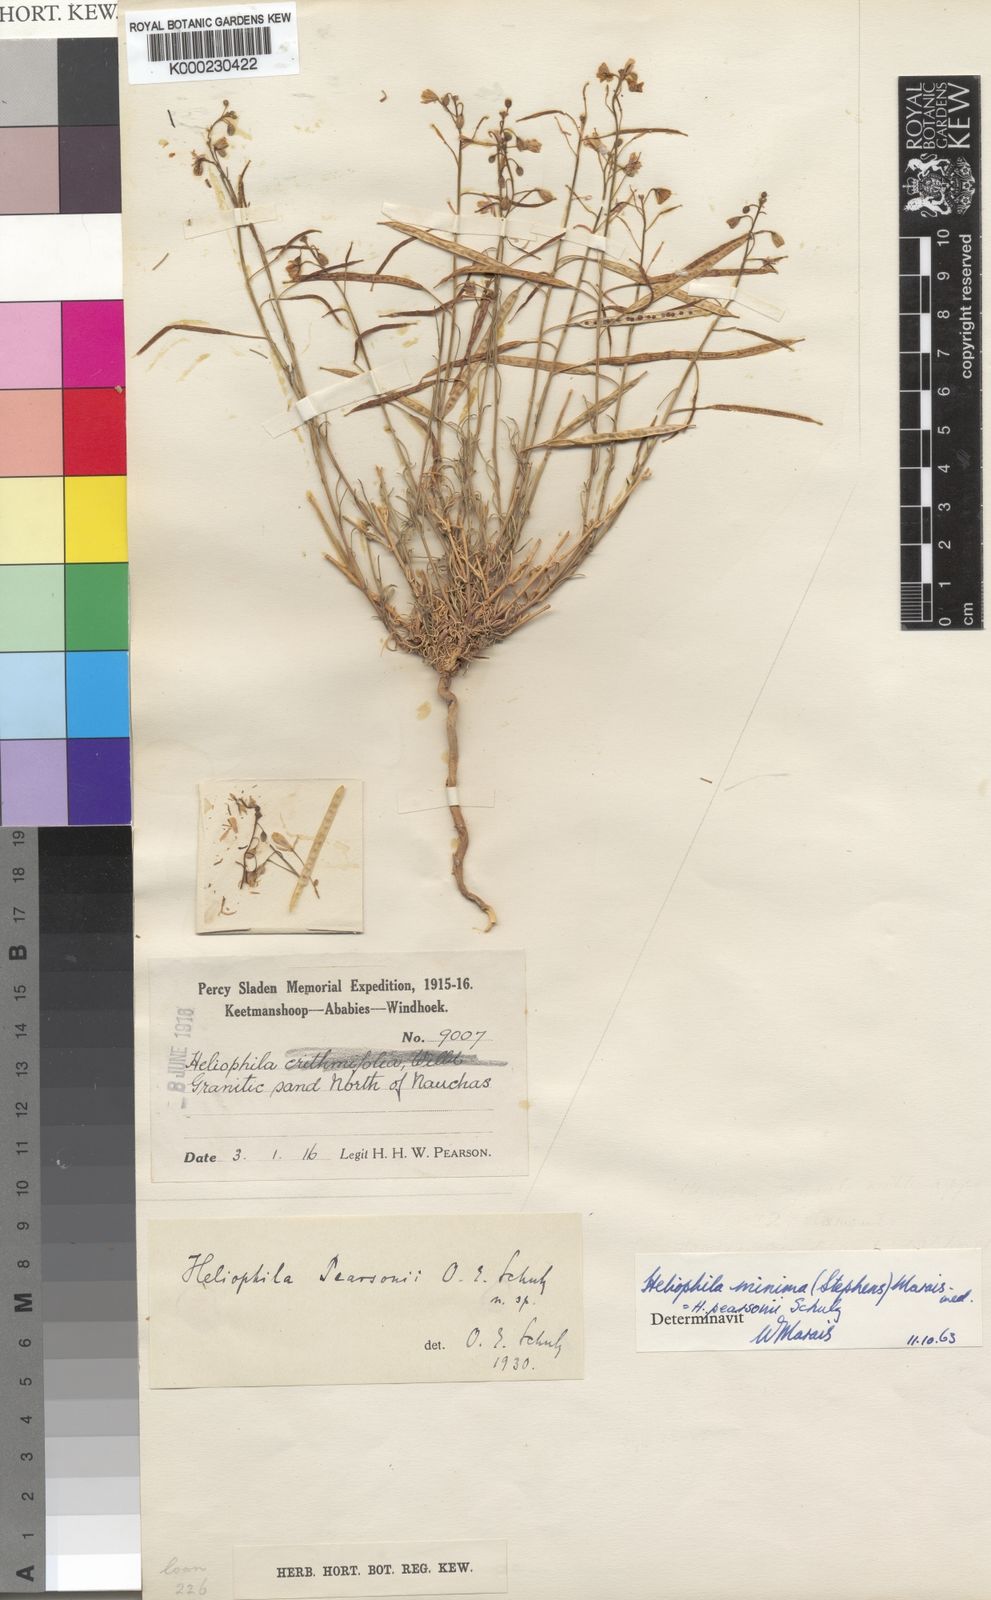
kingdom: Plantae
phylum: Tracheophyta
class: Magnoliopsida
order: Brassicales
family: Brassicaceae
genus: Heliophila
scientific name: Heliophila minima
